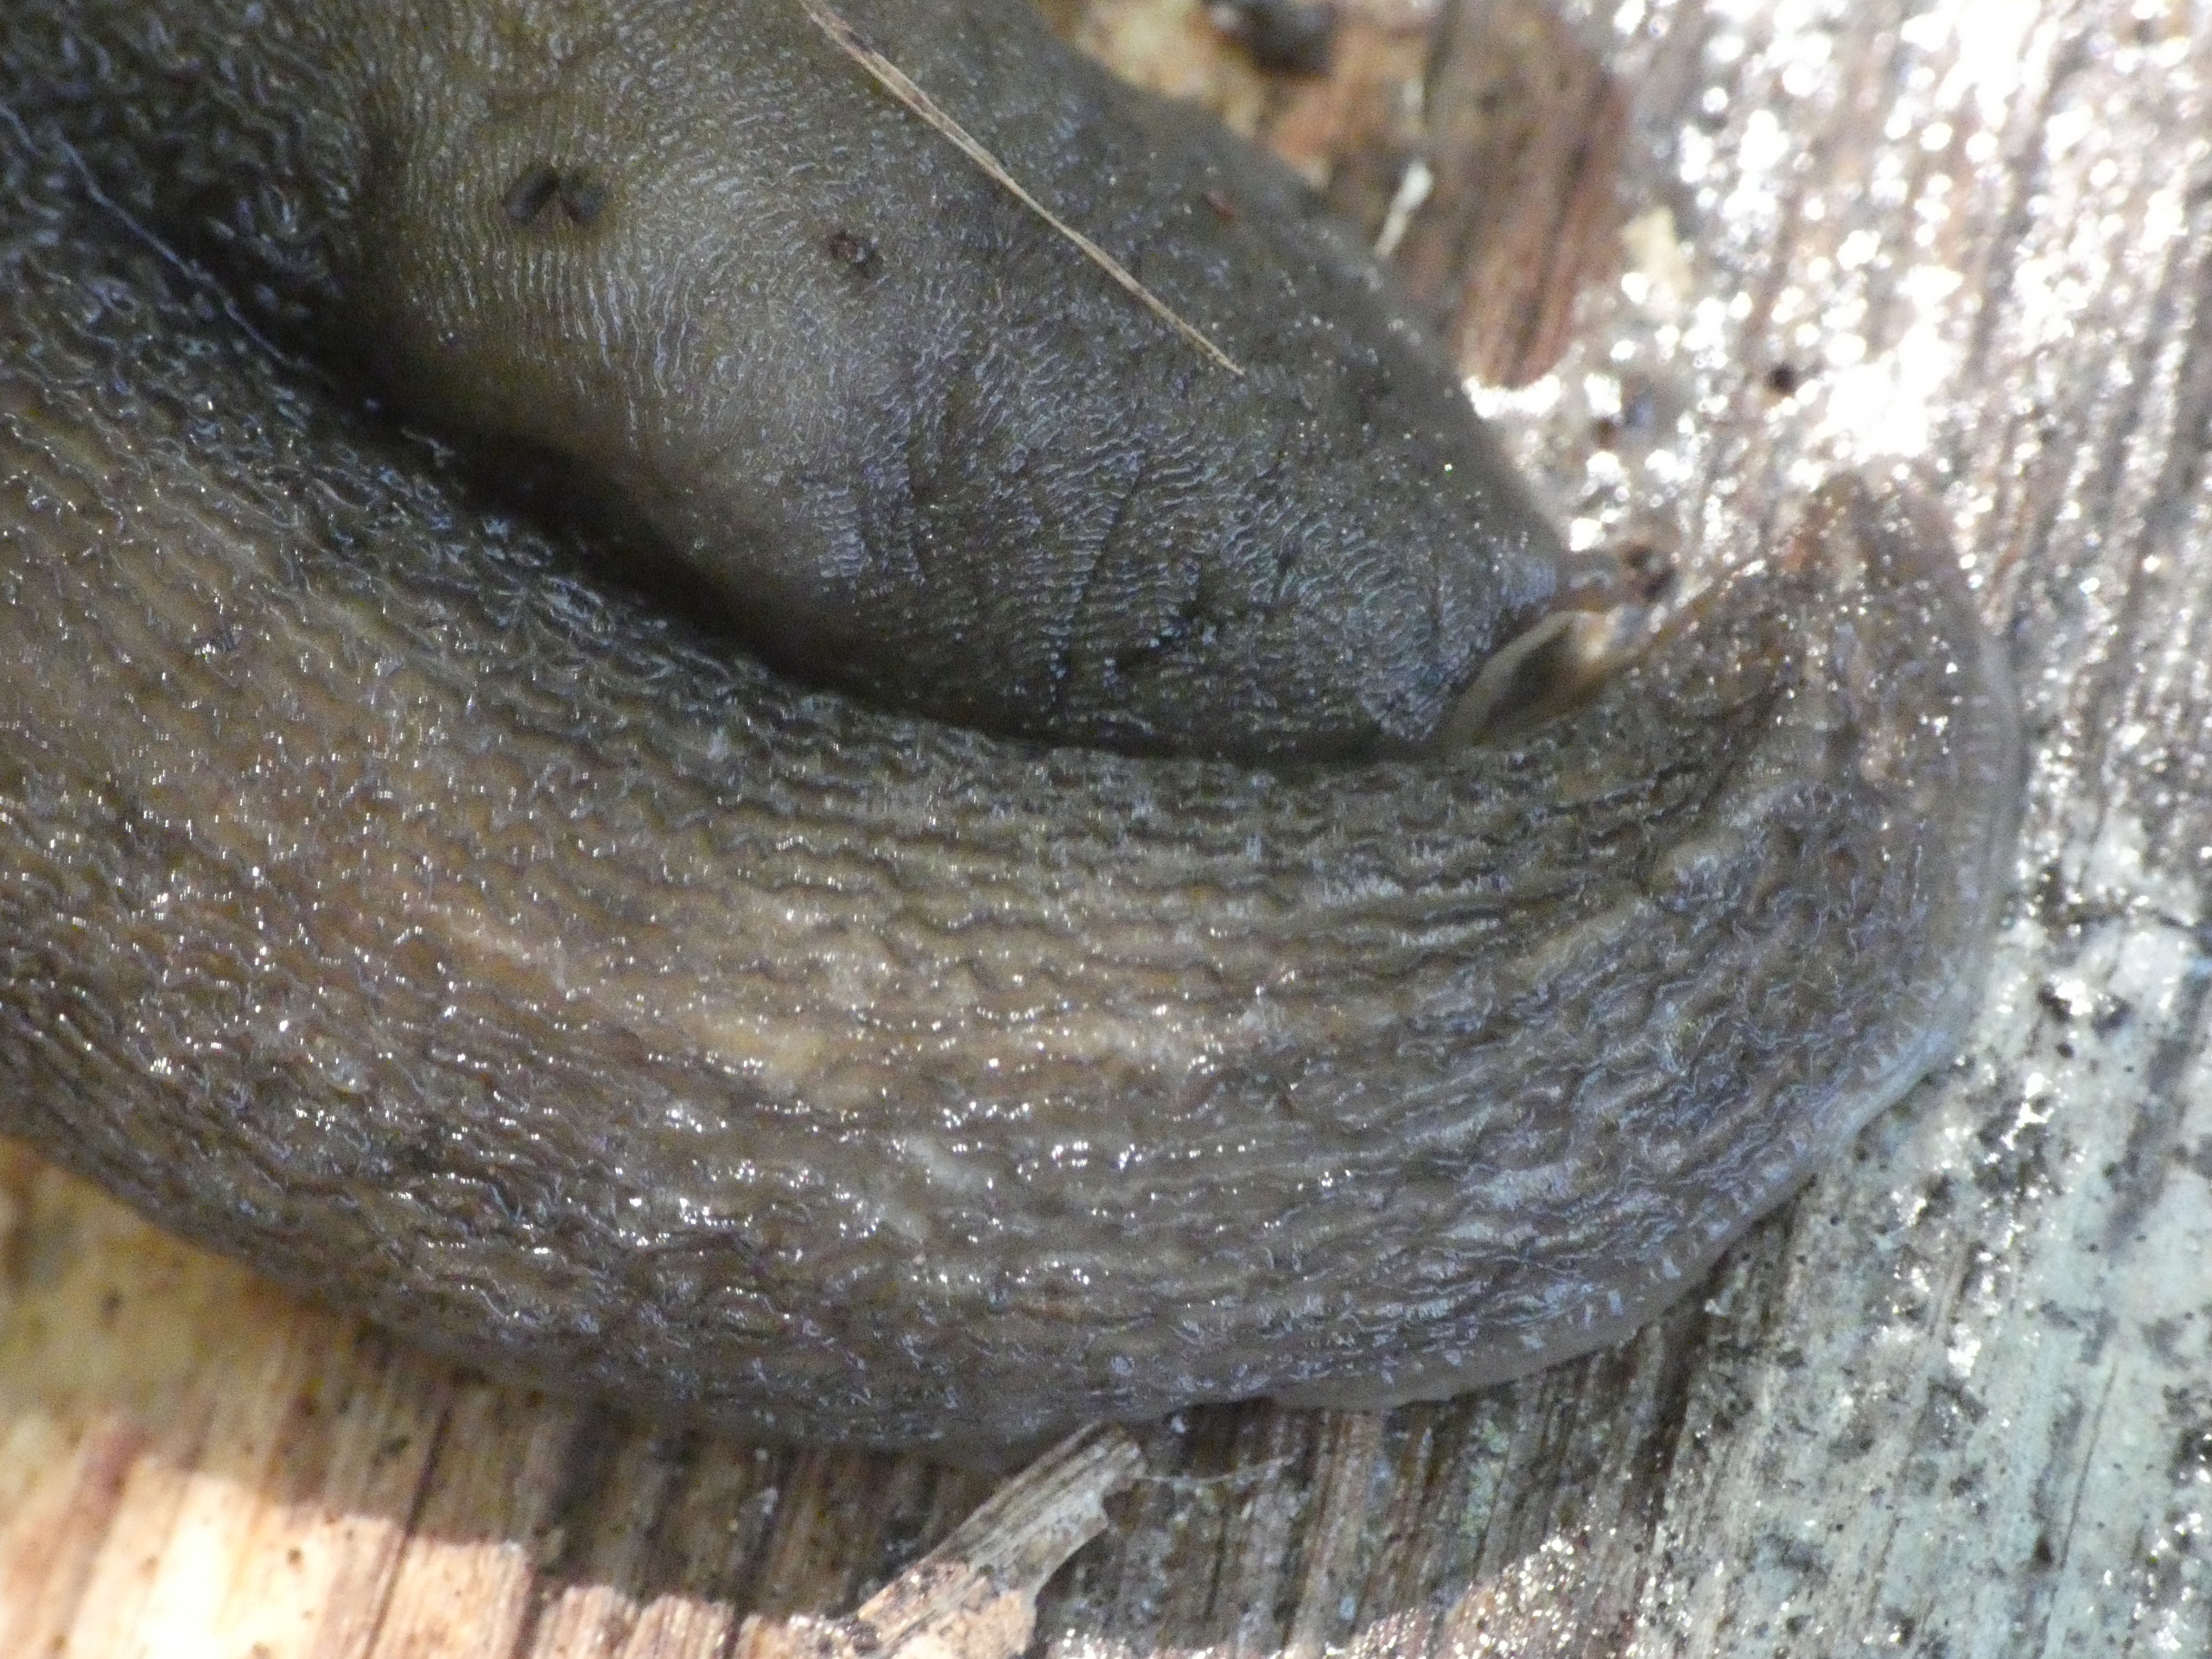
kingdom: Animalia
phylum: Mollusca
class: Gastropoda
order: Stylommatophora
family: Limacidae
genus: Lehmannia
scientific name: Lehmannia marginata
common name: Bøgesnegl
